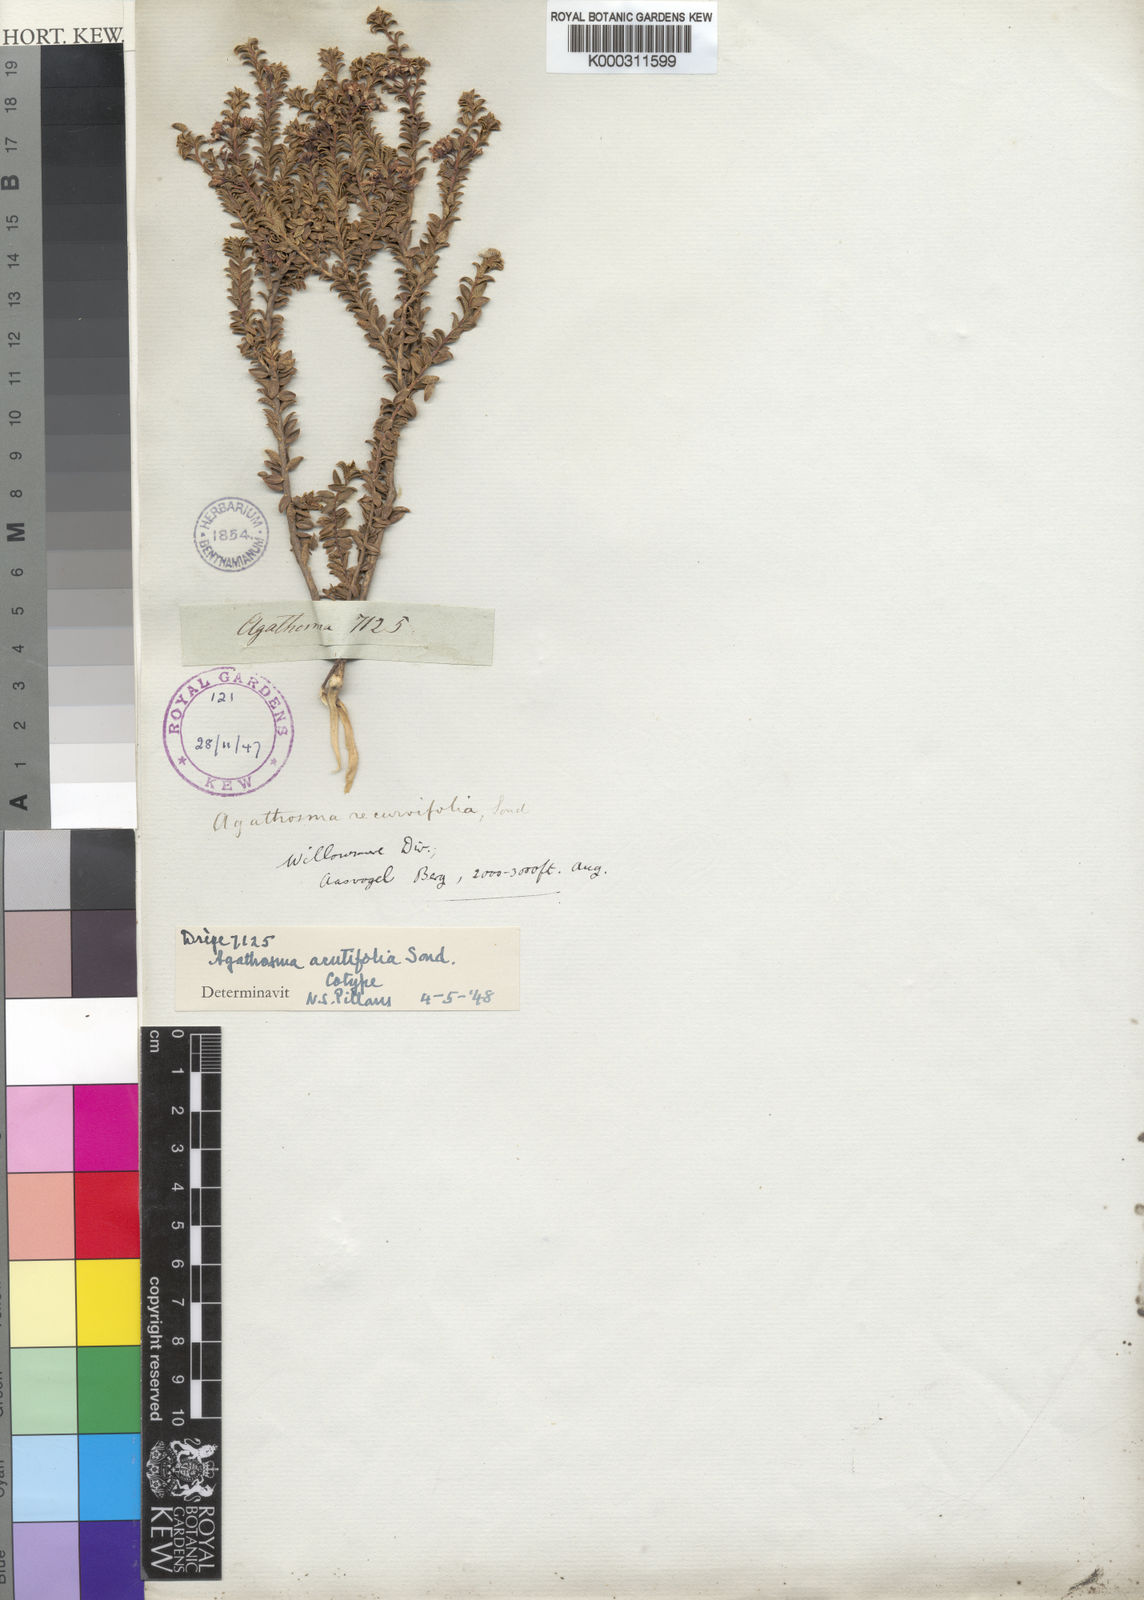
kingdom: Plantae
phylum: Tracheophyta
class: Magnoliopsida
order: Sapindales
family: Rutaceae
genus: Agathosma
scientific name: Agathosma recurvifolia
